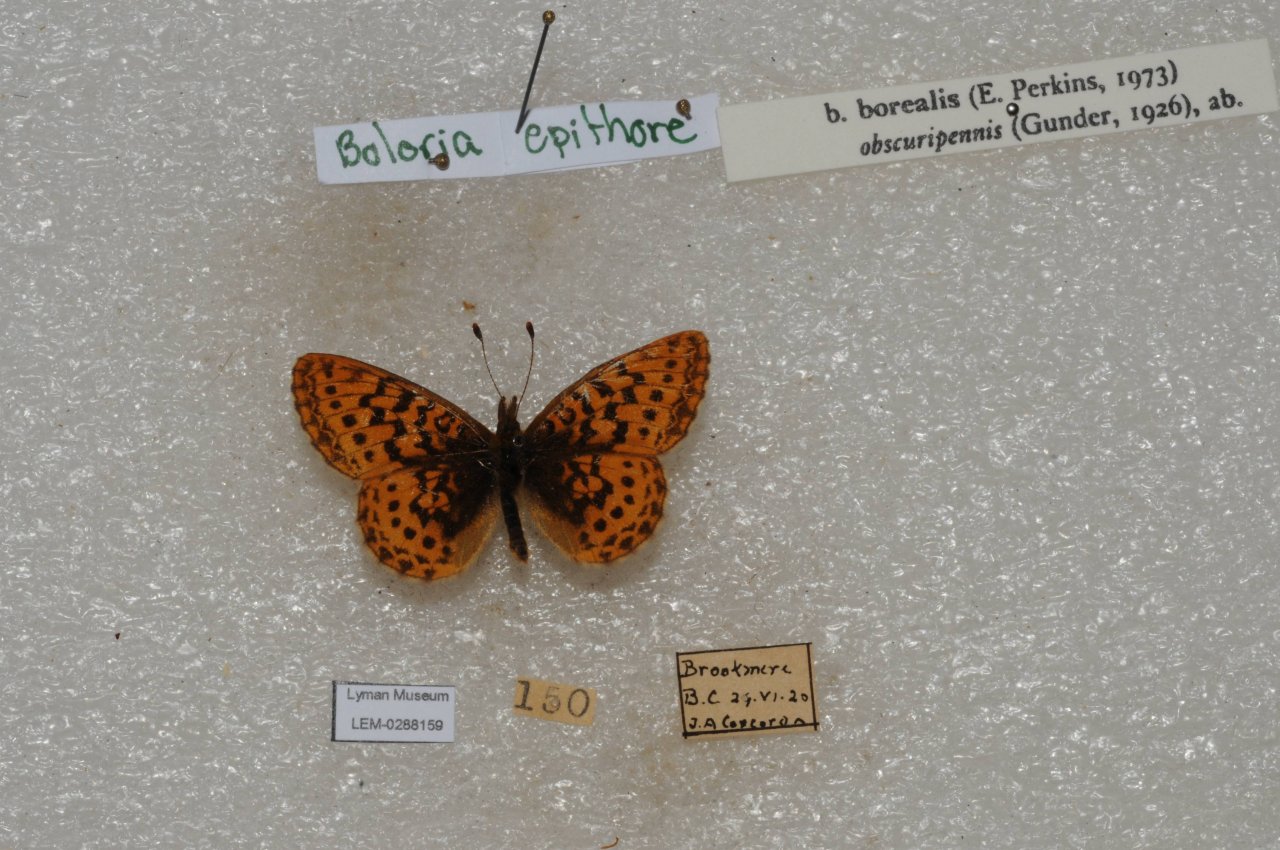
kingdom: Animalia
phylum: Arthropoda
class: Insecta
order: Lepidoptera
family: Nymphalidae
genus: Boloria
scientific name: Boloria epithore
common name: Pacific Fritillary
